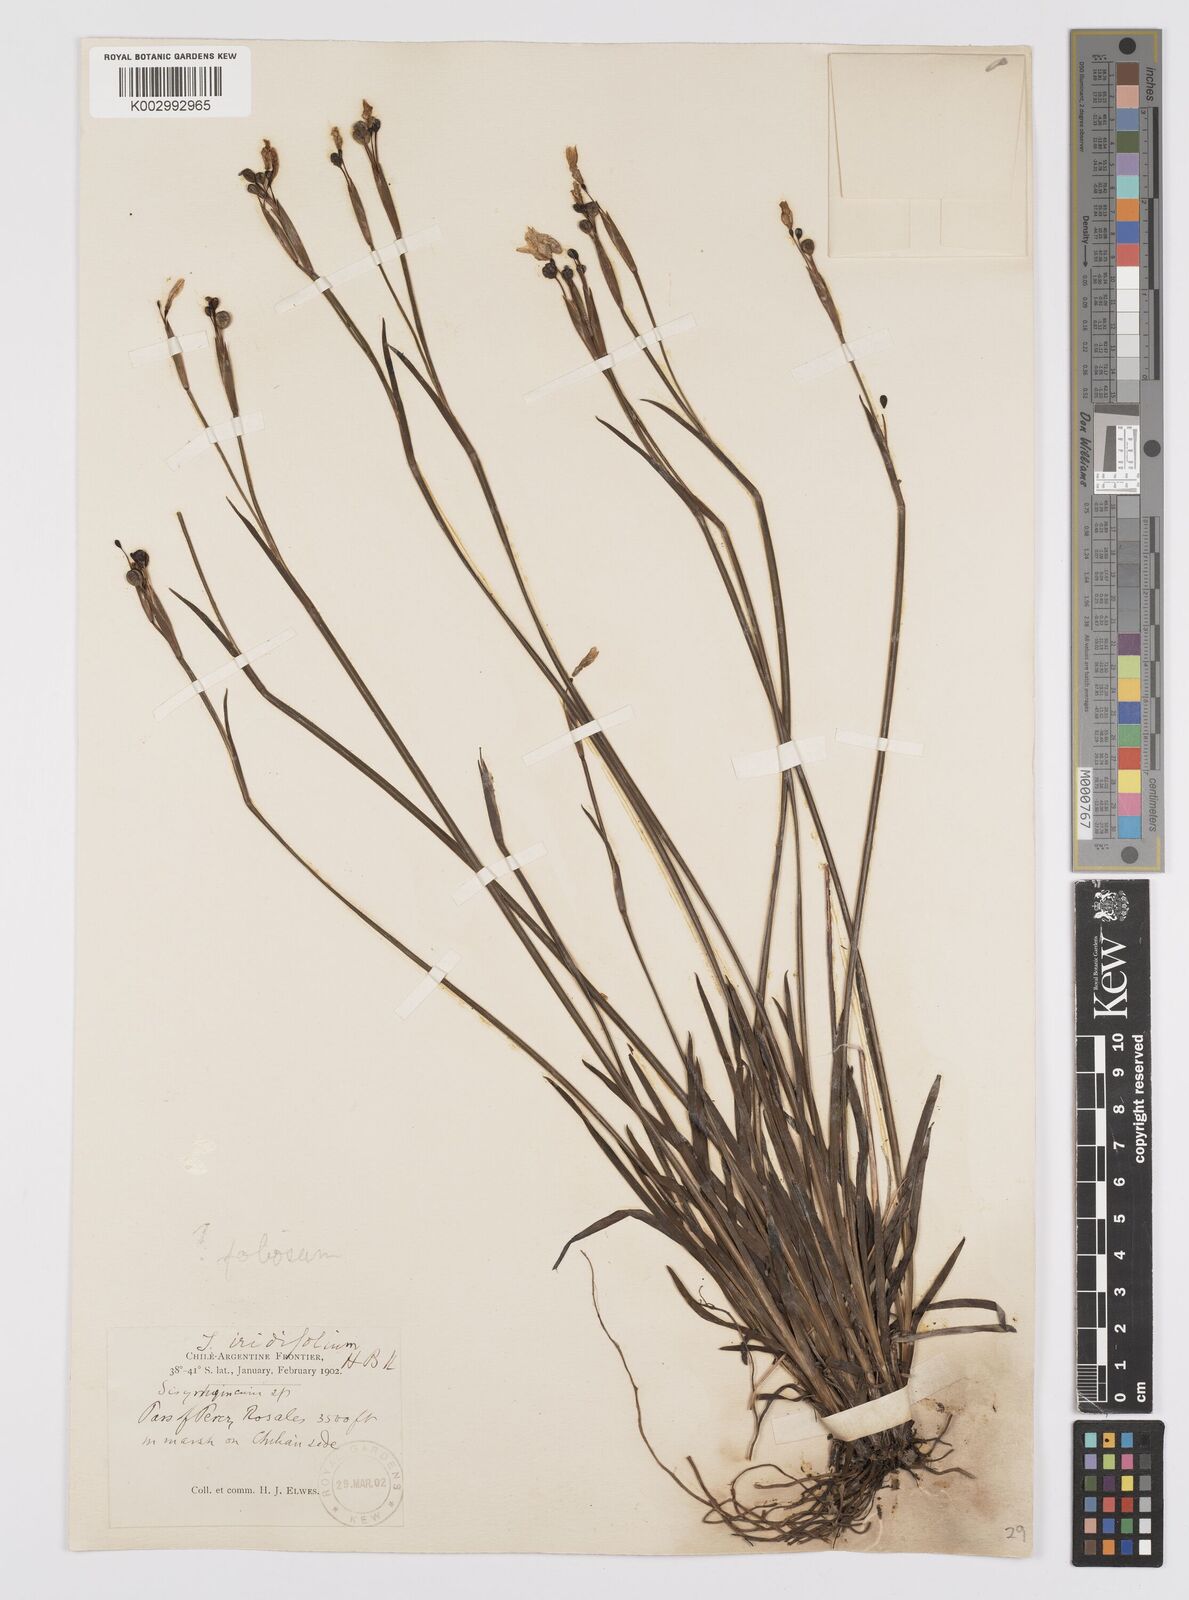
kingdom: Plantae
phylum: Tracheophyta
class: Liliopsida
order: Asparagales
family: Iridaceae
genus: Sisyrinchium
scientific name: Sisyrinchium pachyrhizum
